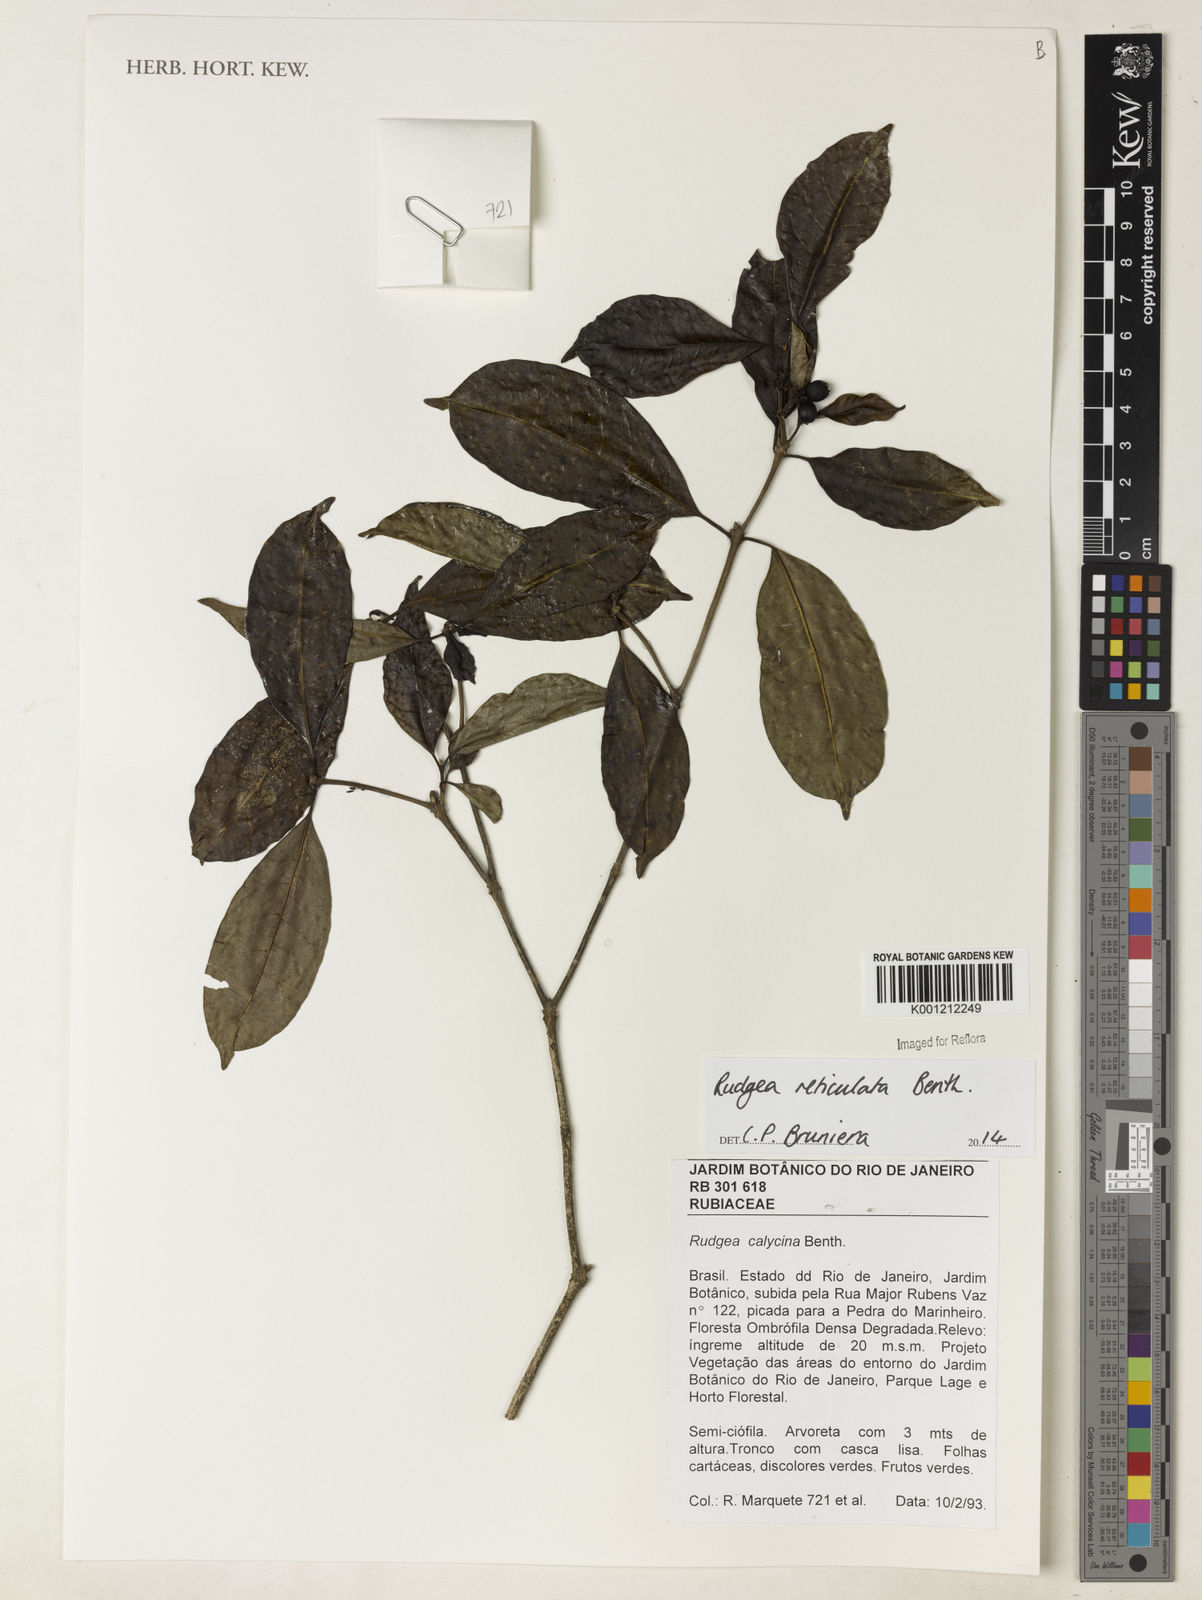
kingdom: Plantae
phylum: Tracheophyta
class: Magnoliopsida
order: Gentianales
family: Rubiaceae
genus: Rudgea
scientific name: Rudgea reticulata
